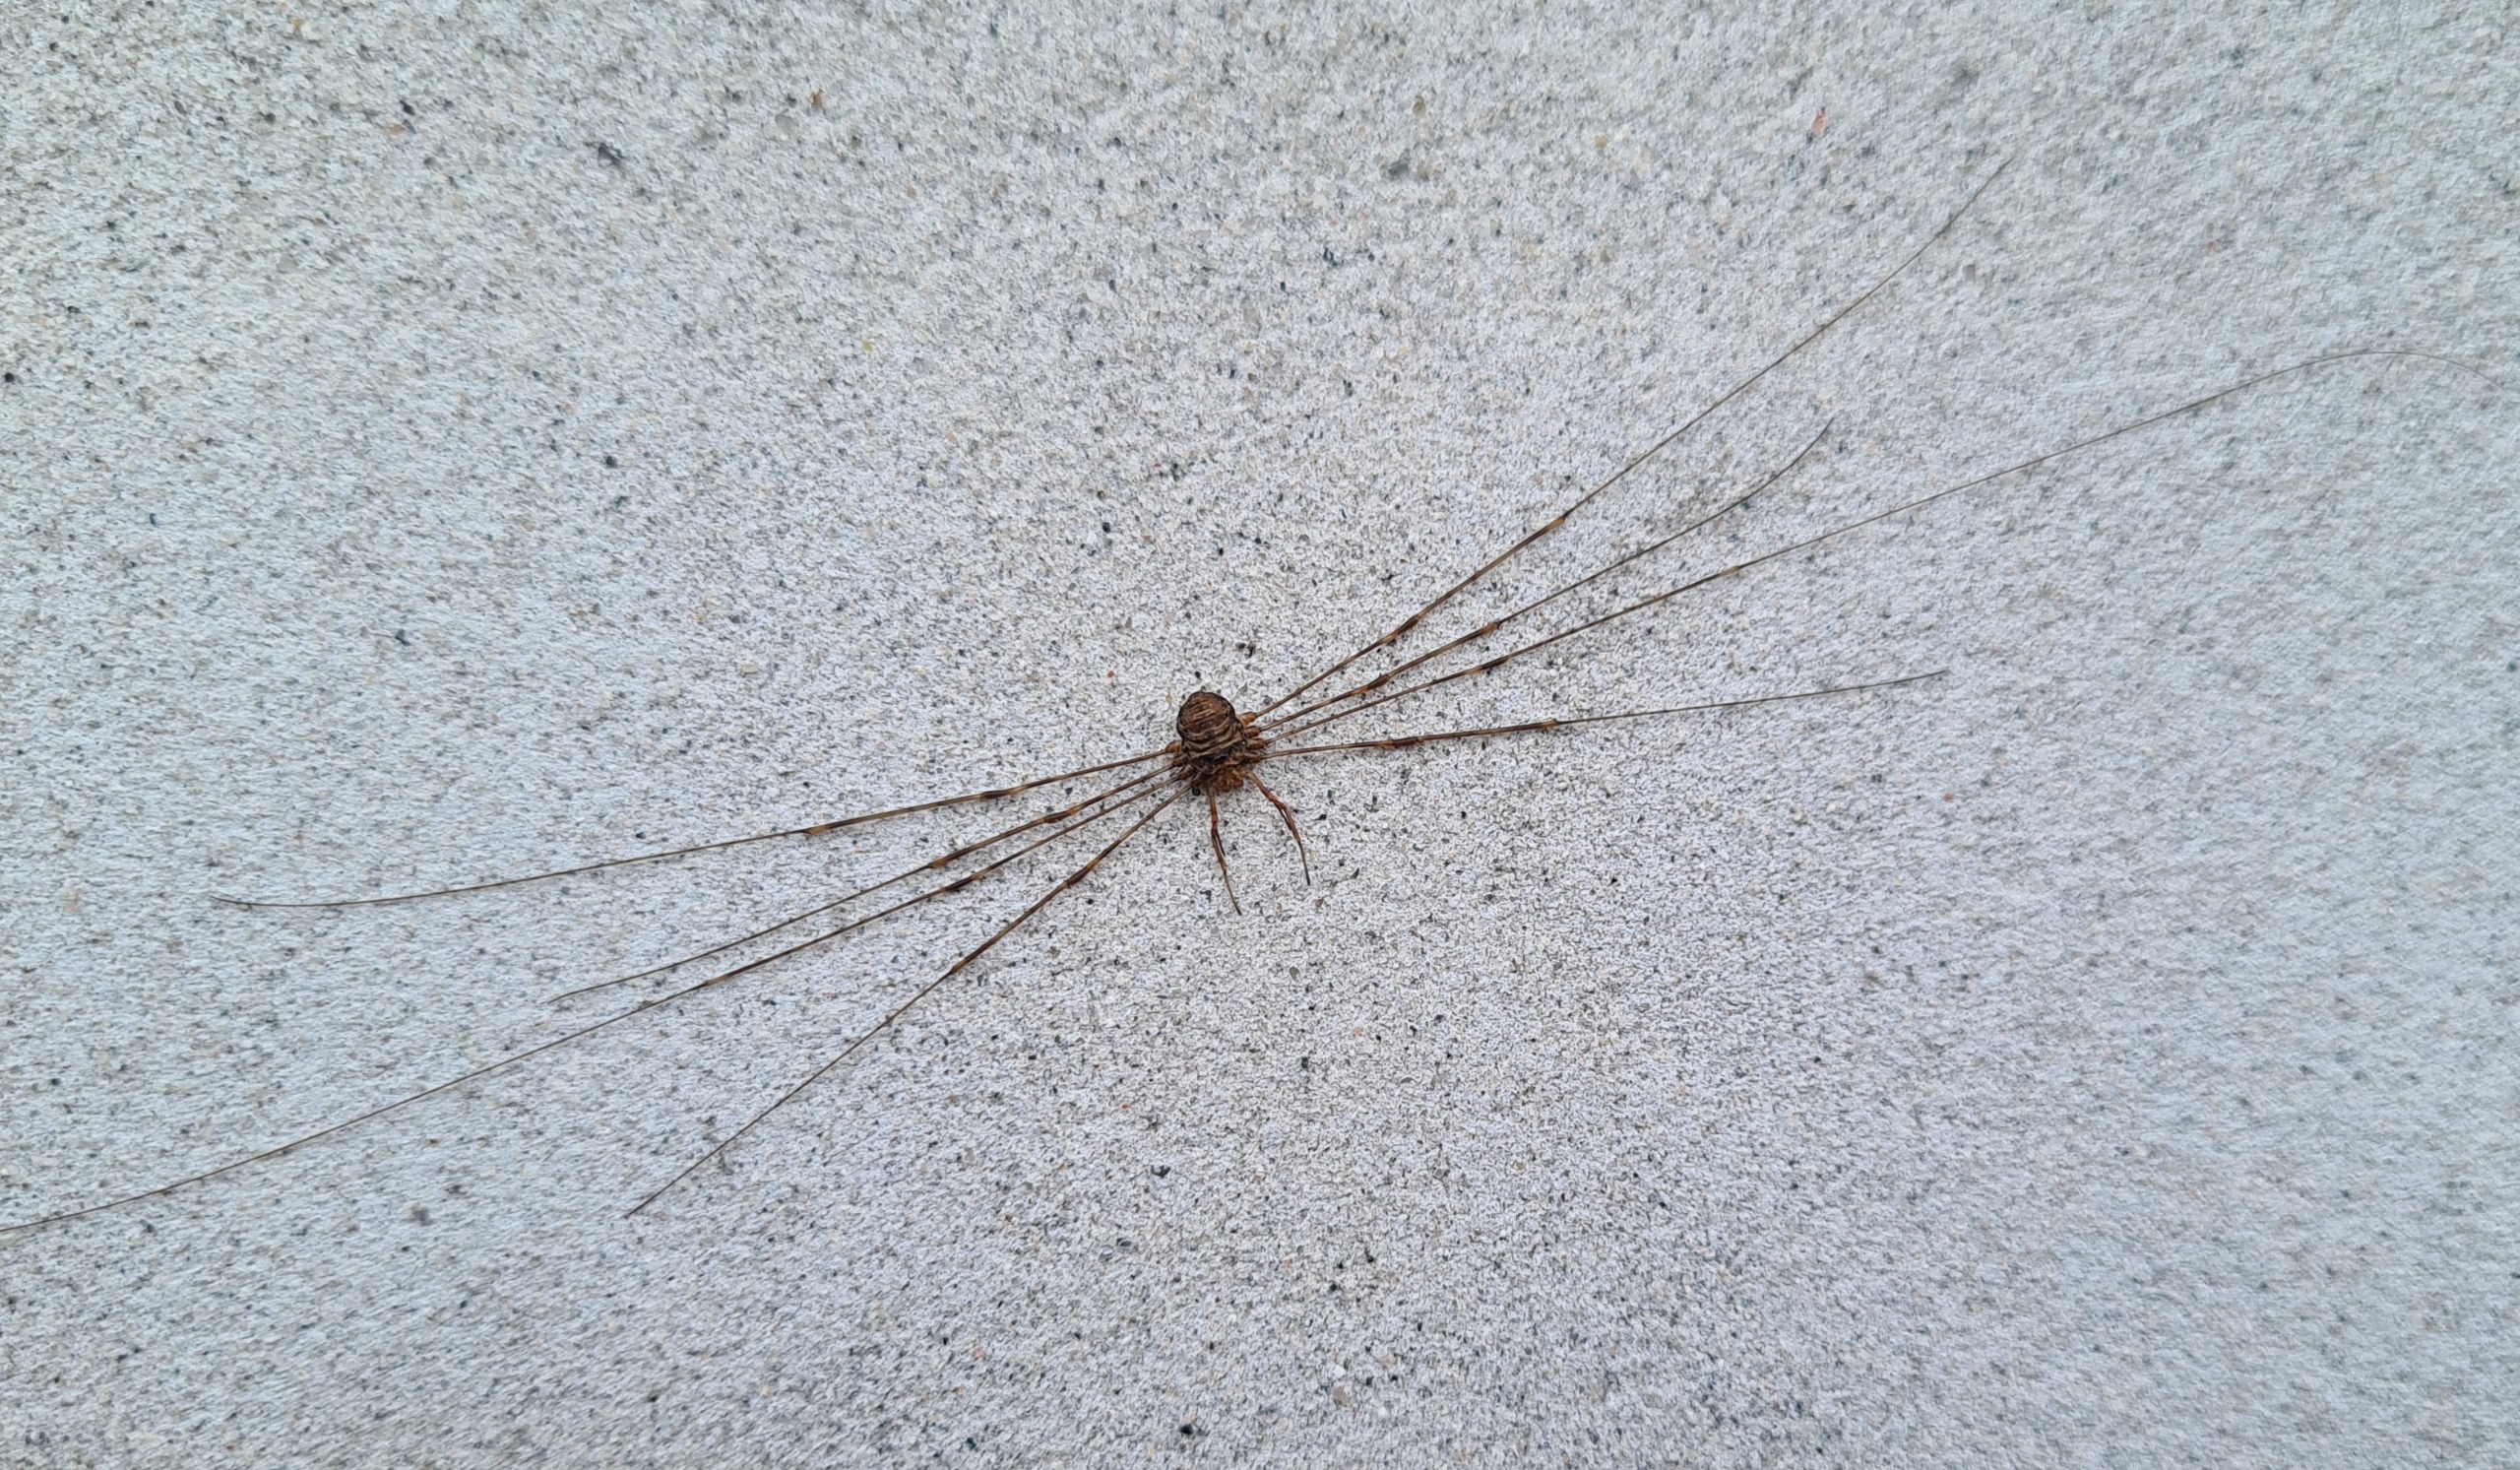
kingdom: Animalia
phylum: Arthropoda
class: Arachnida
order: Opiliones
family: Phalangiidae
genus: Dicranopalpus
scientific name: Dicranopalpus ramosus
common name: Gaffelmejer
